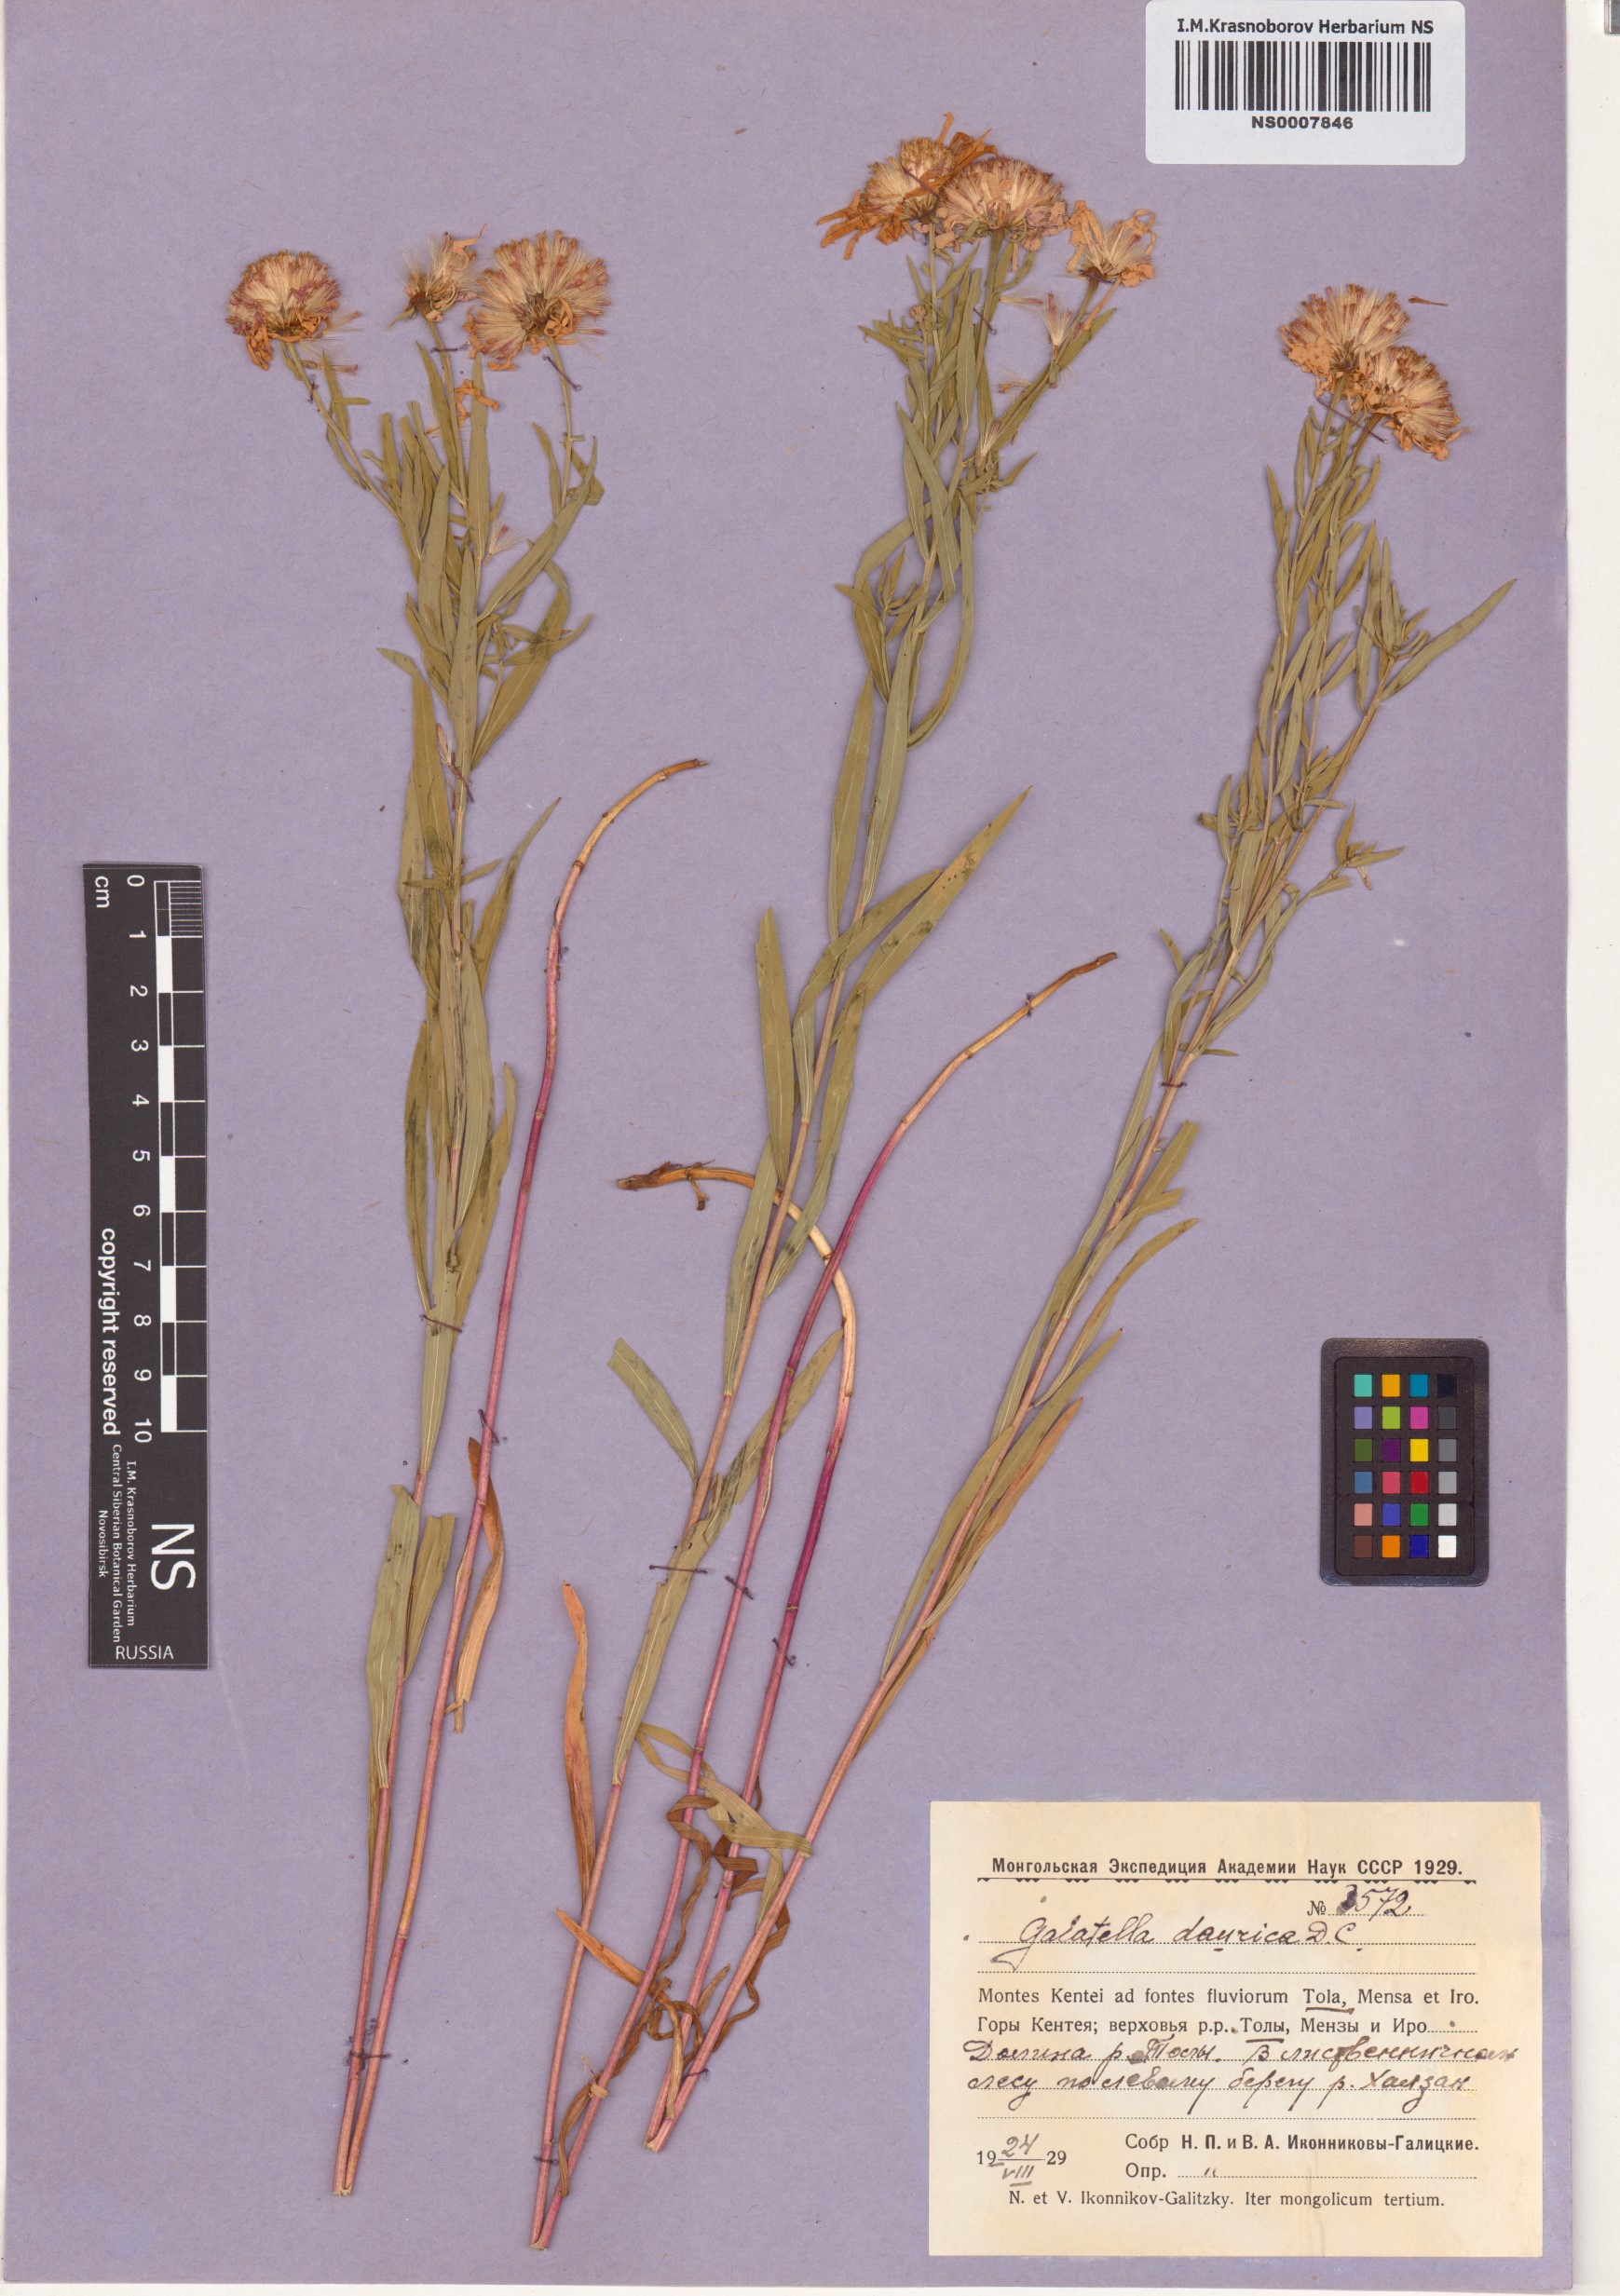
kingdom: Plantae
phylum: Tracheophyta
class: Magnoliopsida
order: Asterales
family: Asteraceae
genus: Galatella
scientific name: Galatella dahurica
